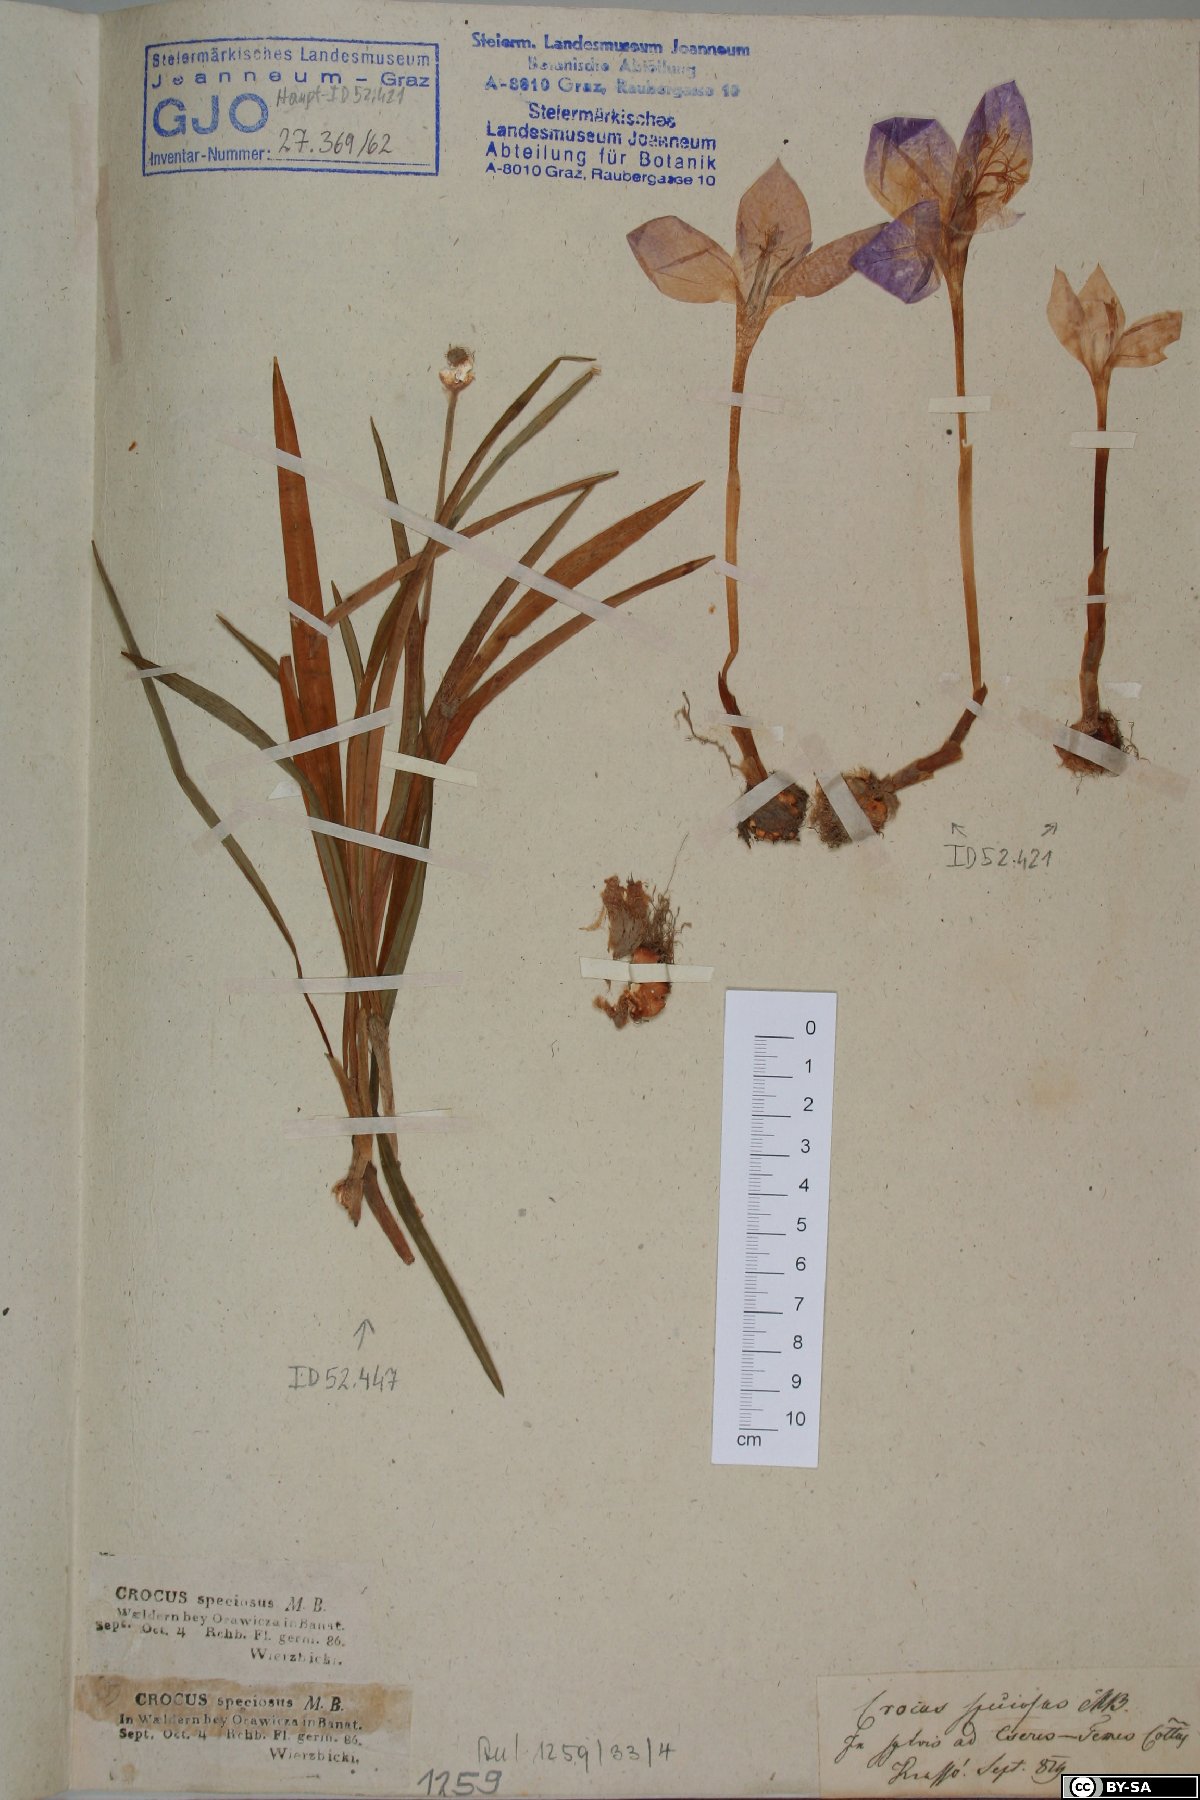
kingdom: Plantae
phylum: Tracheophyta
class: Liliopsida
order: Asparagales
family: Iridaceae
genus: Crocus
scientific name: Crocus speciosus
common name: Bieberstein's crocus
